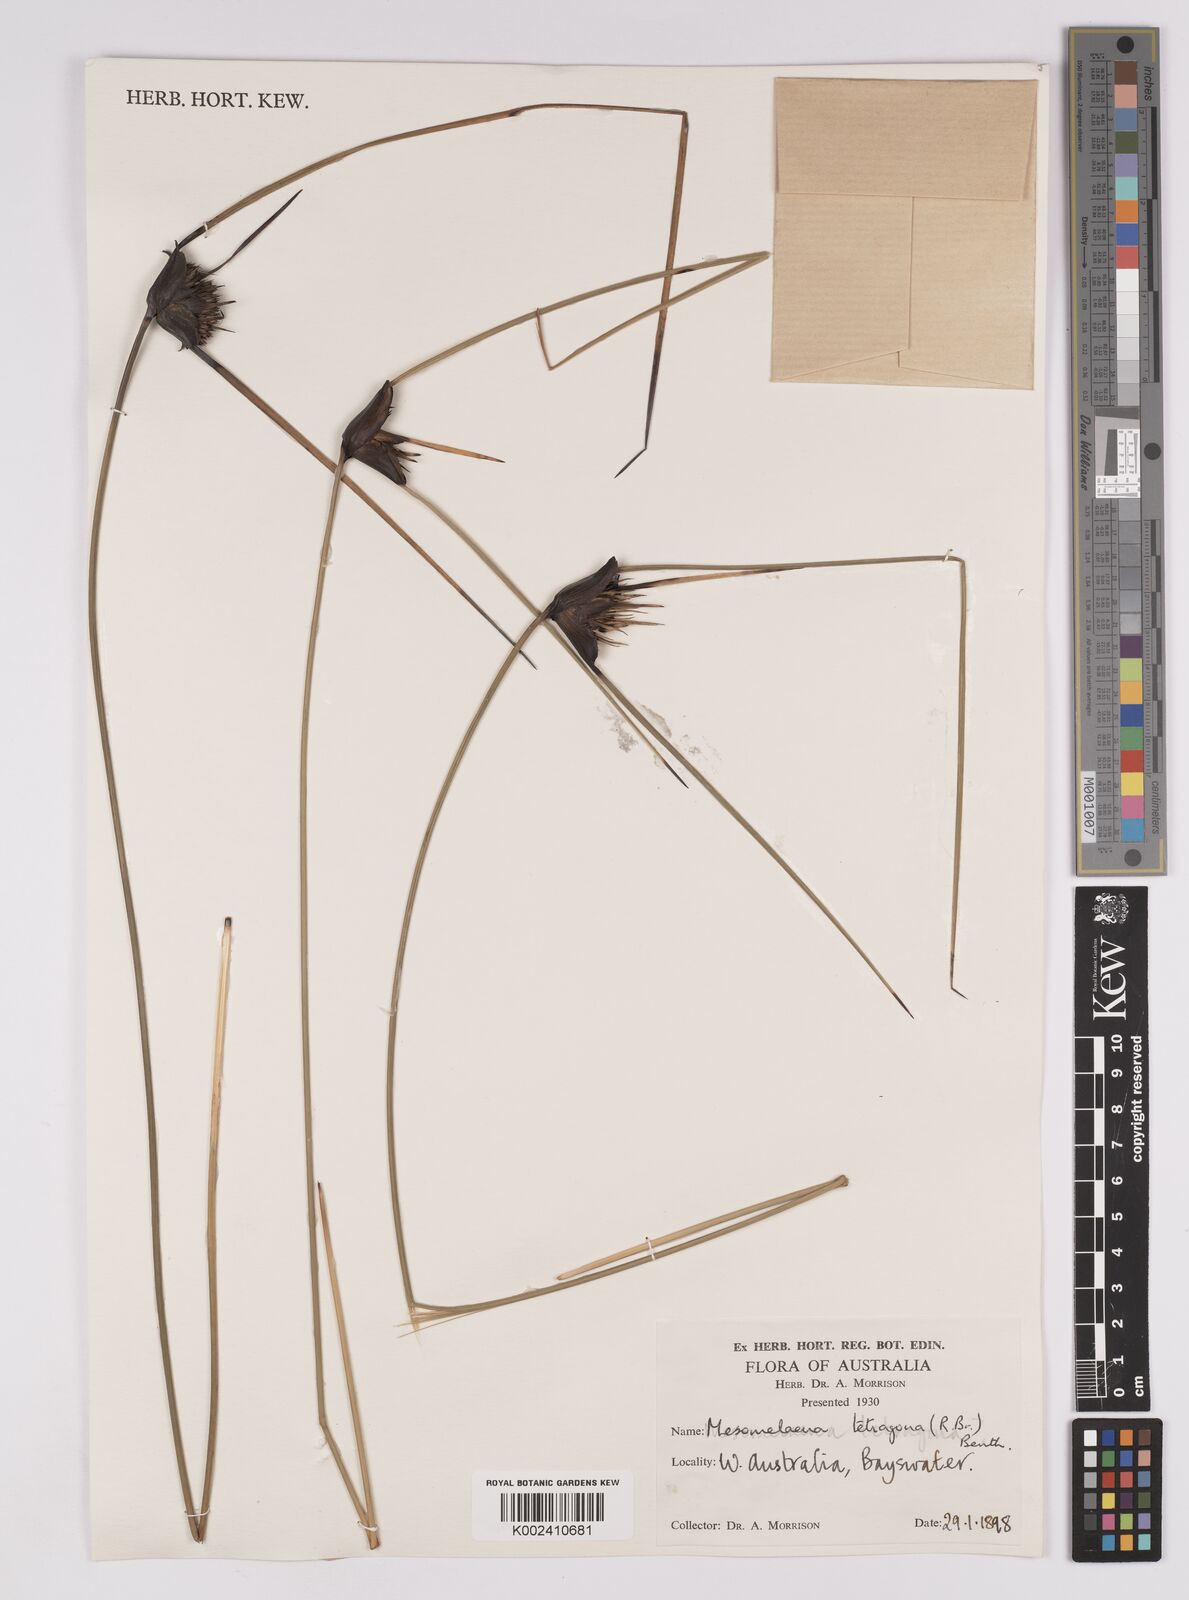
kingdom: Plantae
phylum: Tracheophyta
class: Liliopsida
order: Poales
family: Cyperaceae
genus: Mesomelaena
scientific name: Mesomelaena tetragona
